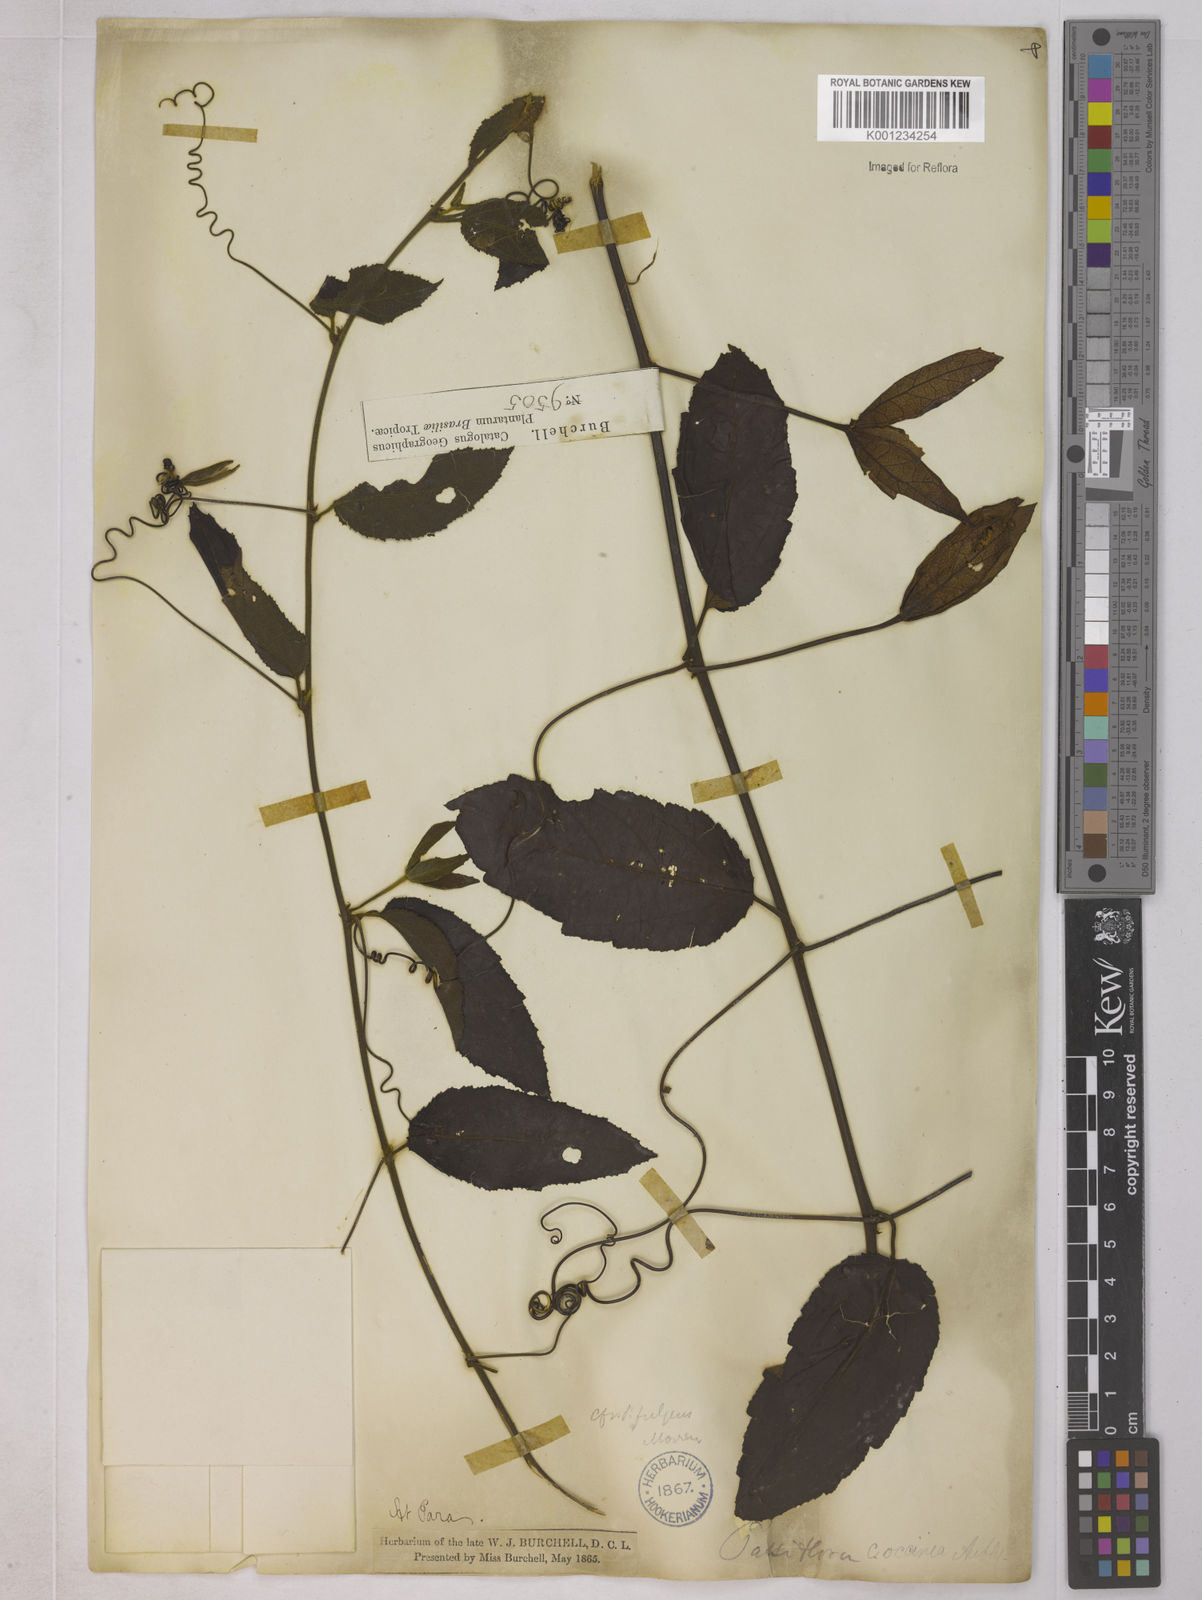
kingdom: Plantae
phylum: Tracheophyta
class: Magnoliopsida
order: Malpighiales
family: Passifloraceae
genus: Passiflora
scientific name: Passiflora coccinea
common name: Scarlet passionflower
